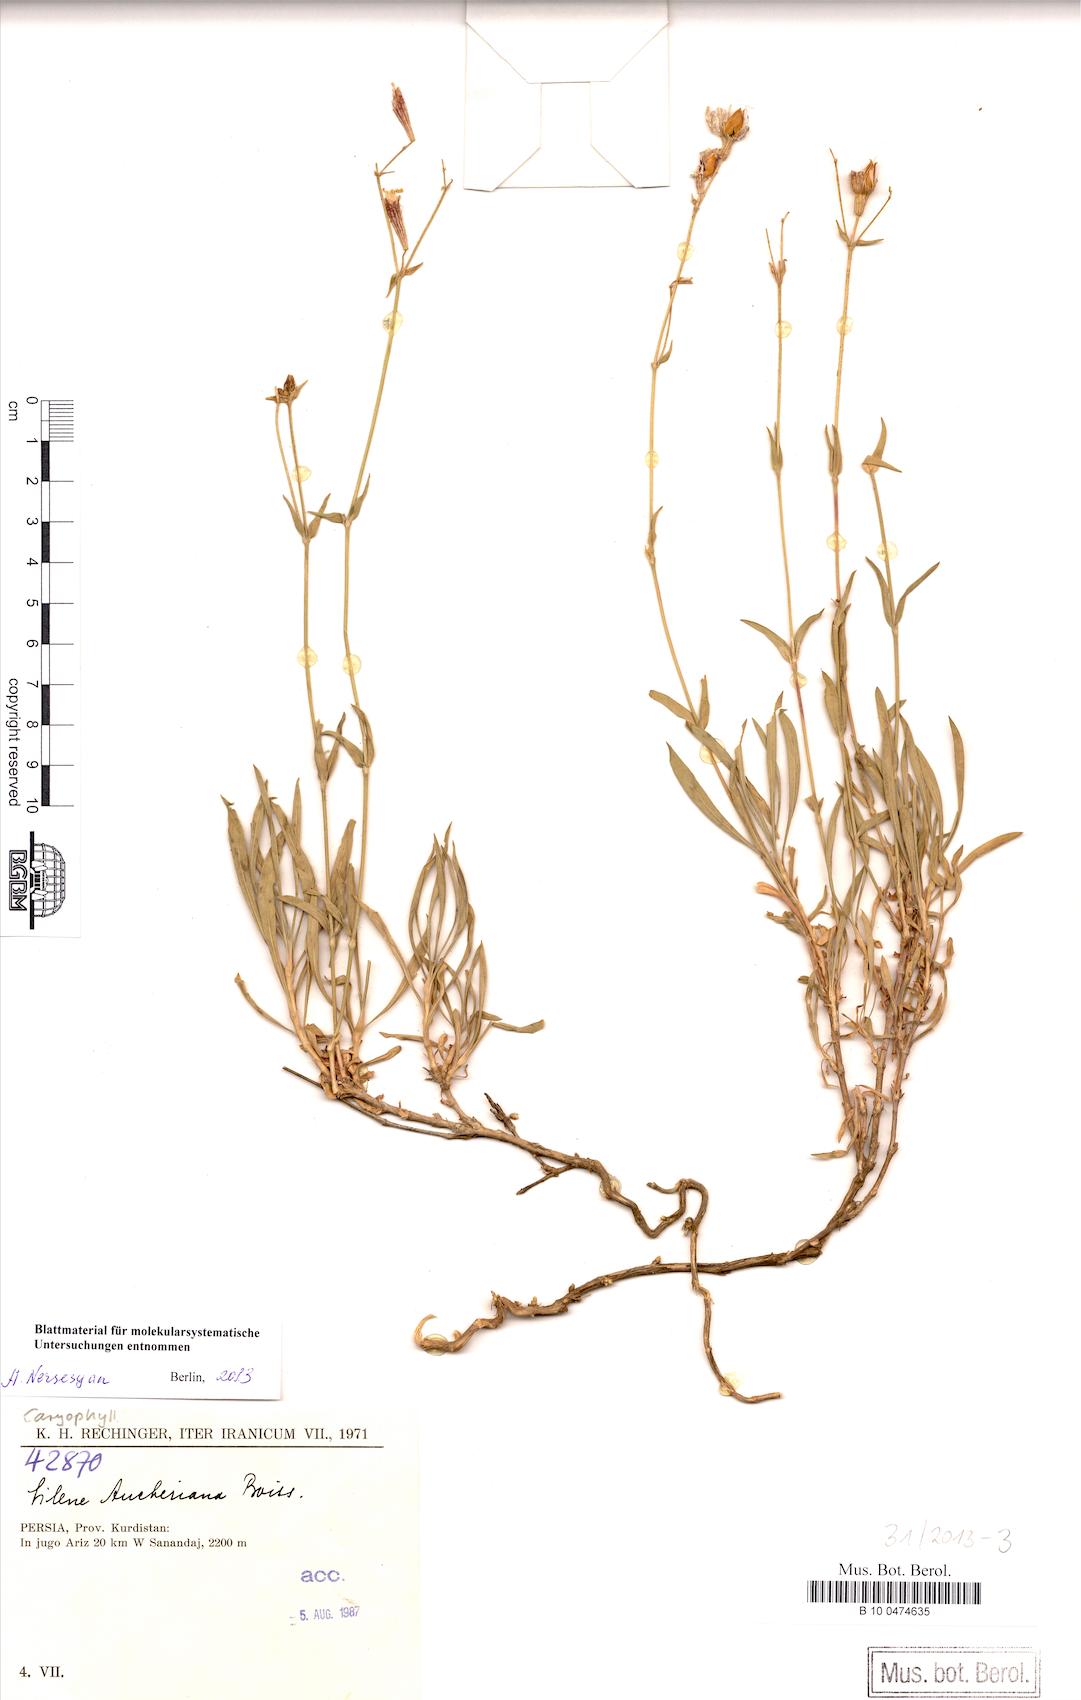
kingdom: Plantae
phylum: Tracheophyta
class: Magnoliopsida
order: Caryophyllales
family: Caryophyllaceae
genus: Silene
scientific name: Silene aucheriana
